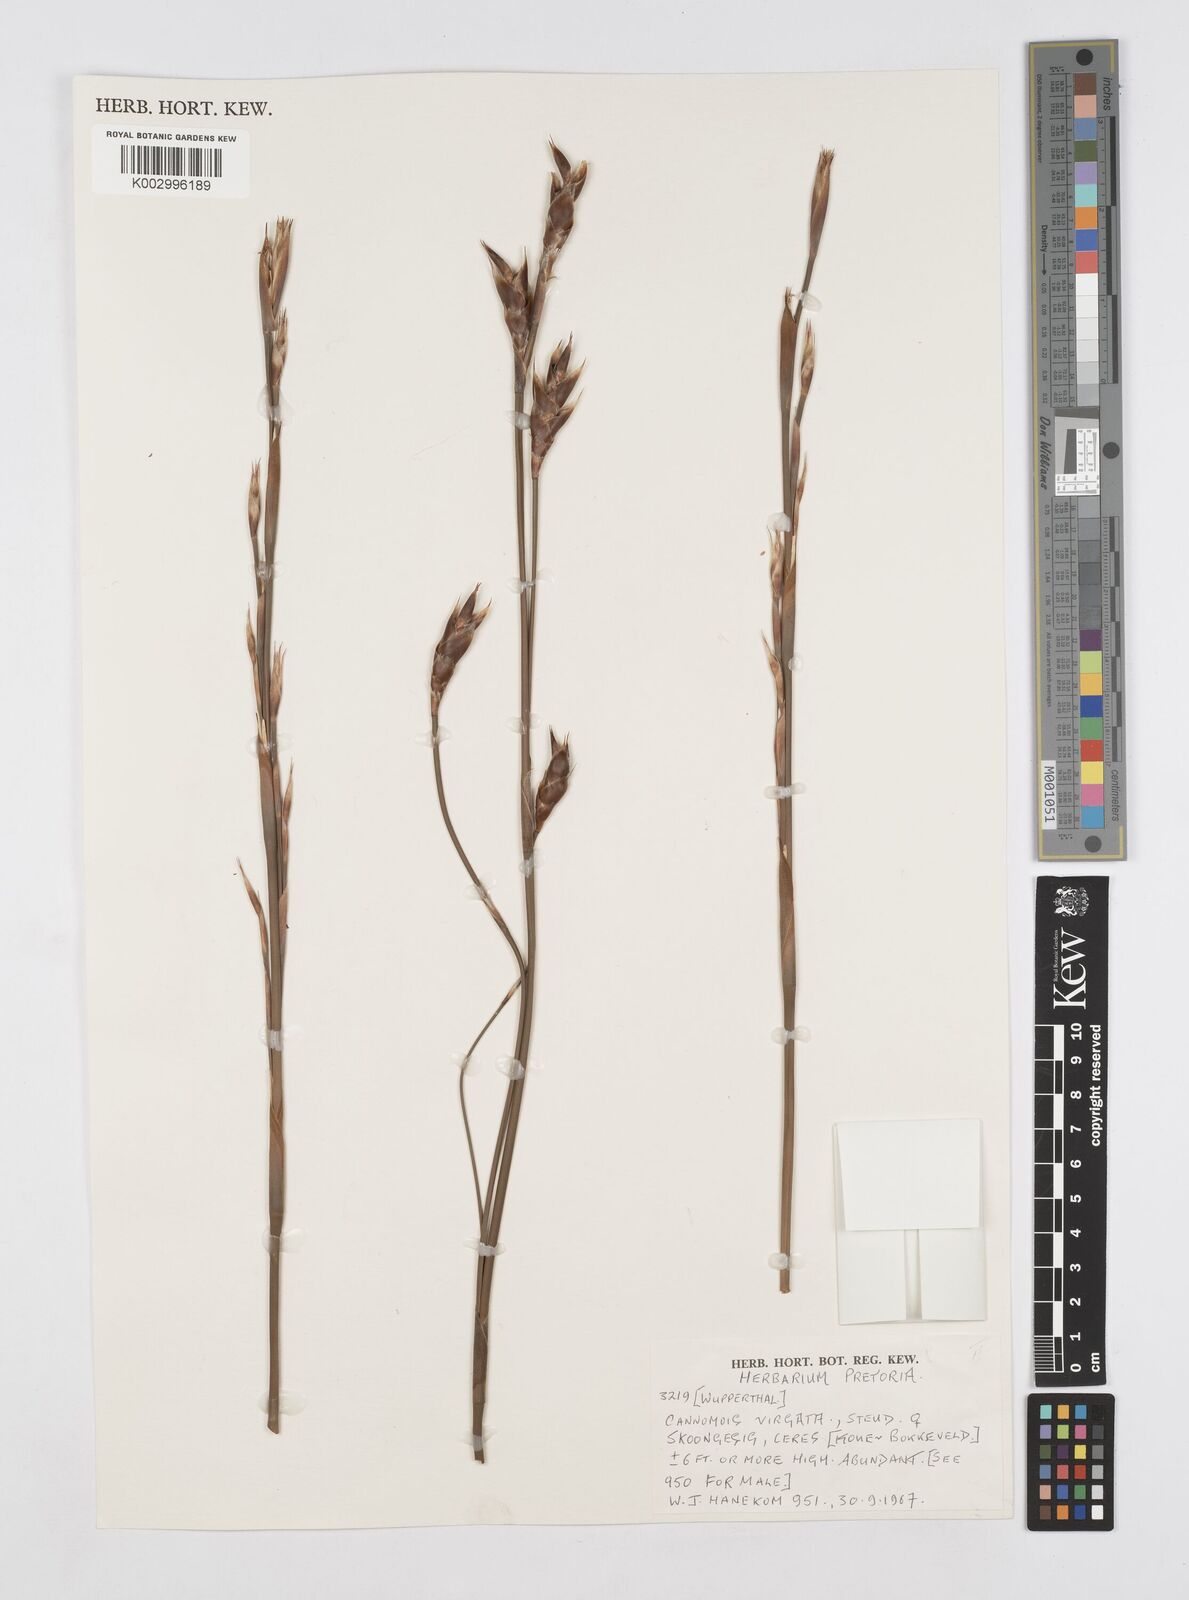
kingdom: Plantae
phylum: Tracheophyta
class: Liliopsida
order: Poales
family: Restionaceae
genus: Cannomois
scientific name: Cannomois virgata
